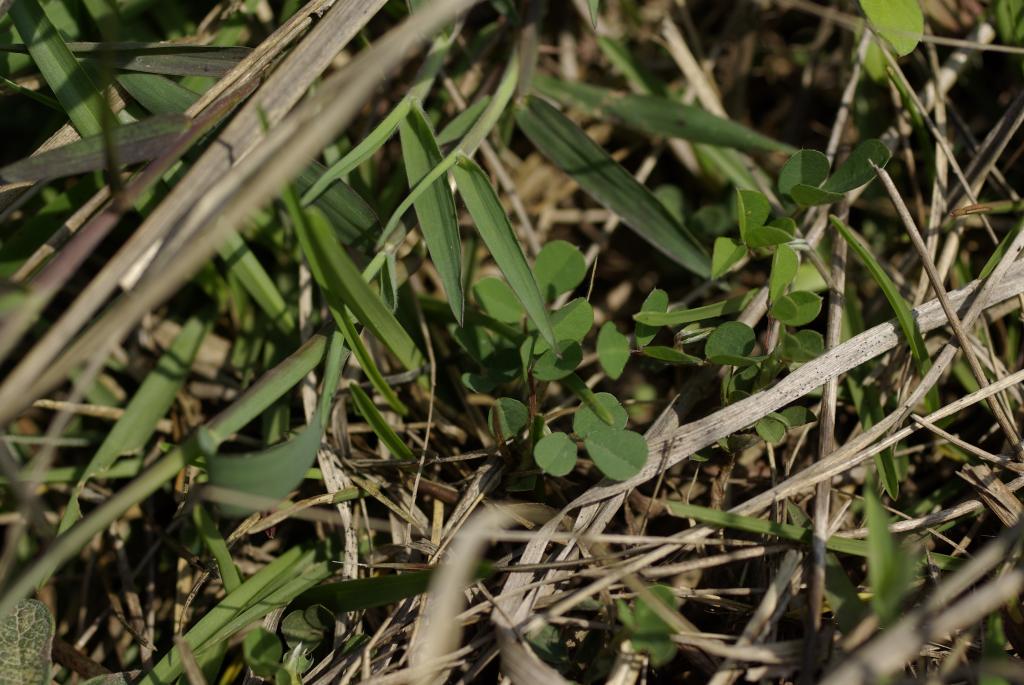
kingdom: Plantae
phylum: Tracheophyta
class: Magnoliopsida
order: Fabales
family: Fabaceae
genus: Grona
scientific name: Grona triflora
